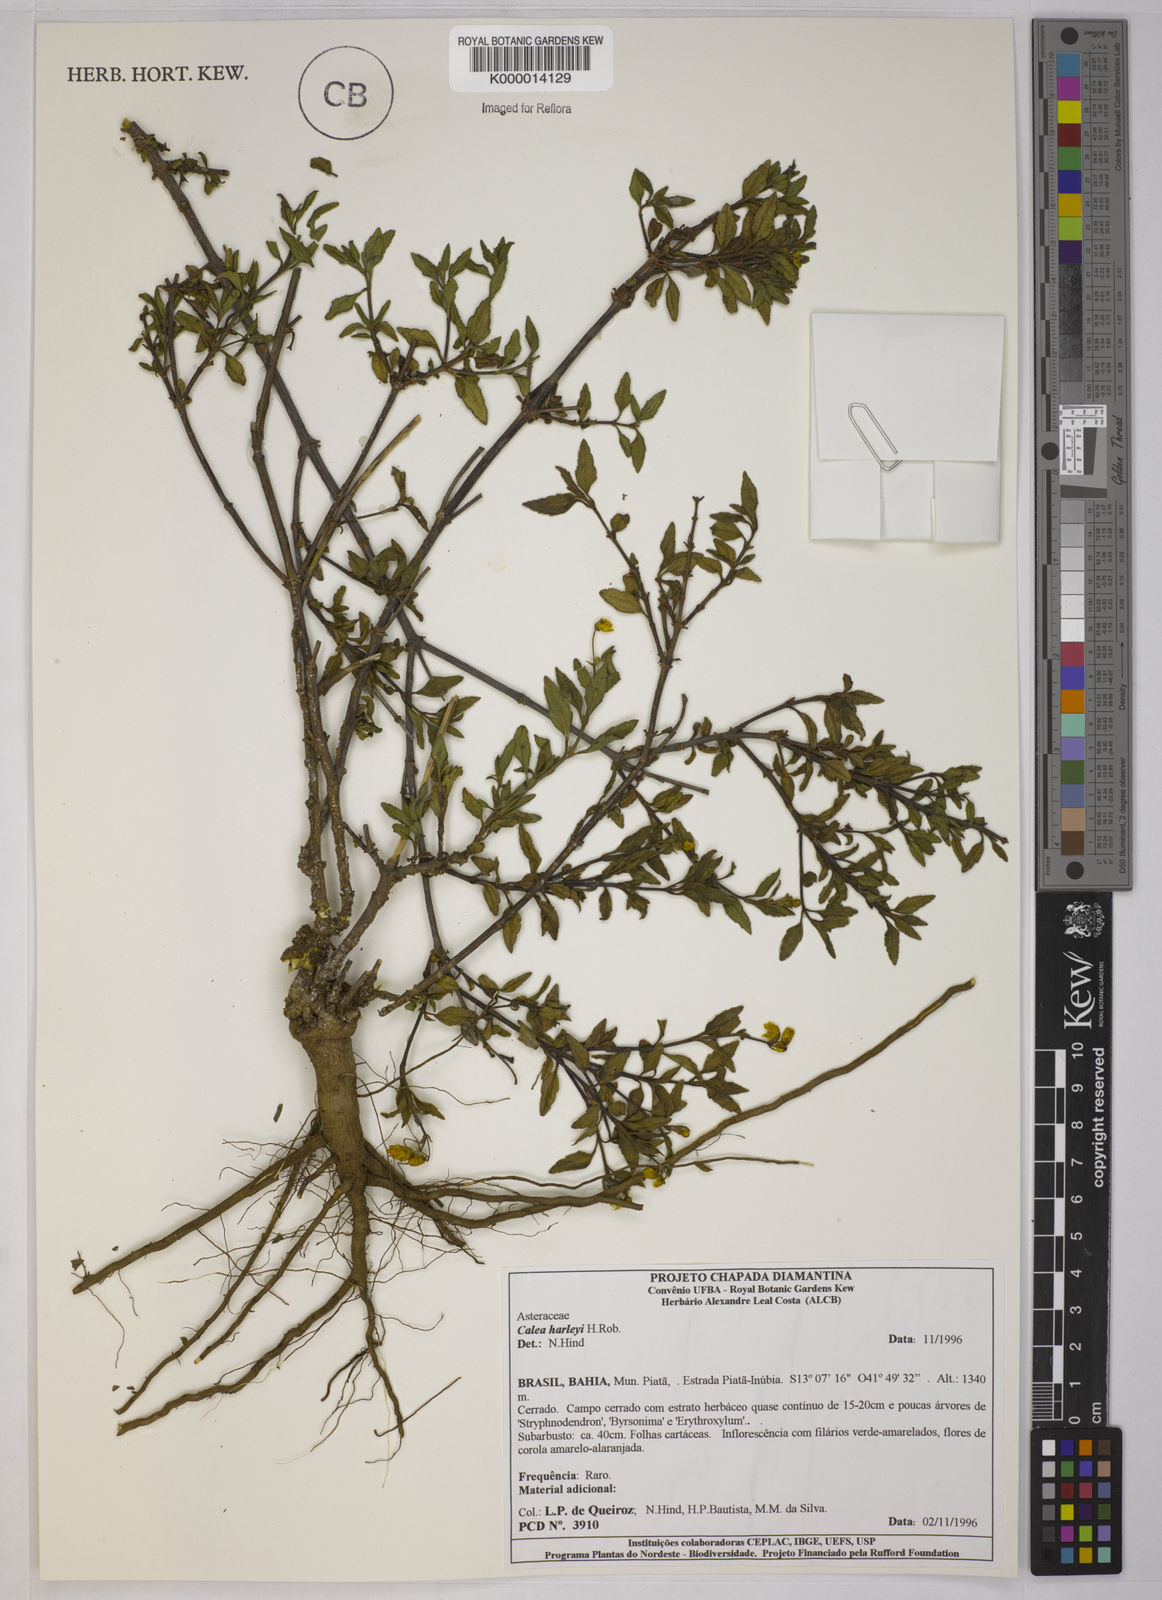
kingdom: Plantae
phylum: Tracheophyta
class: Magnoliopsida
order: Asterales
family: Asteraceae
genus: Calea
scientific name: Calea harleyi
